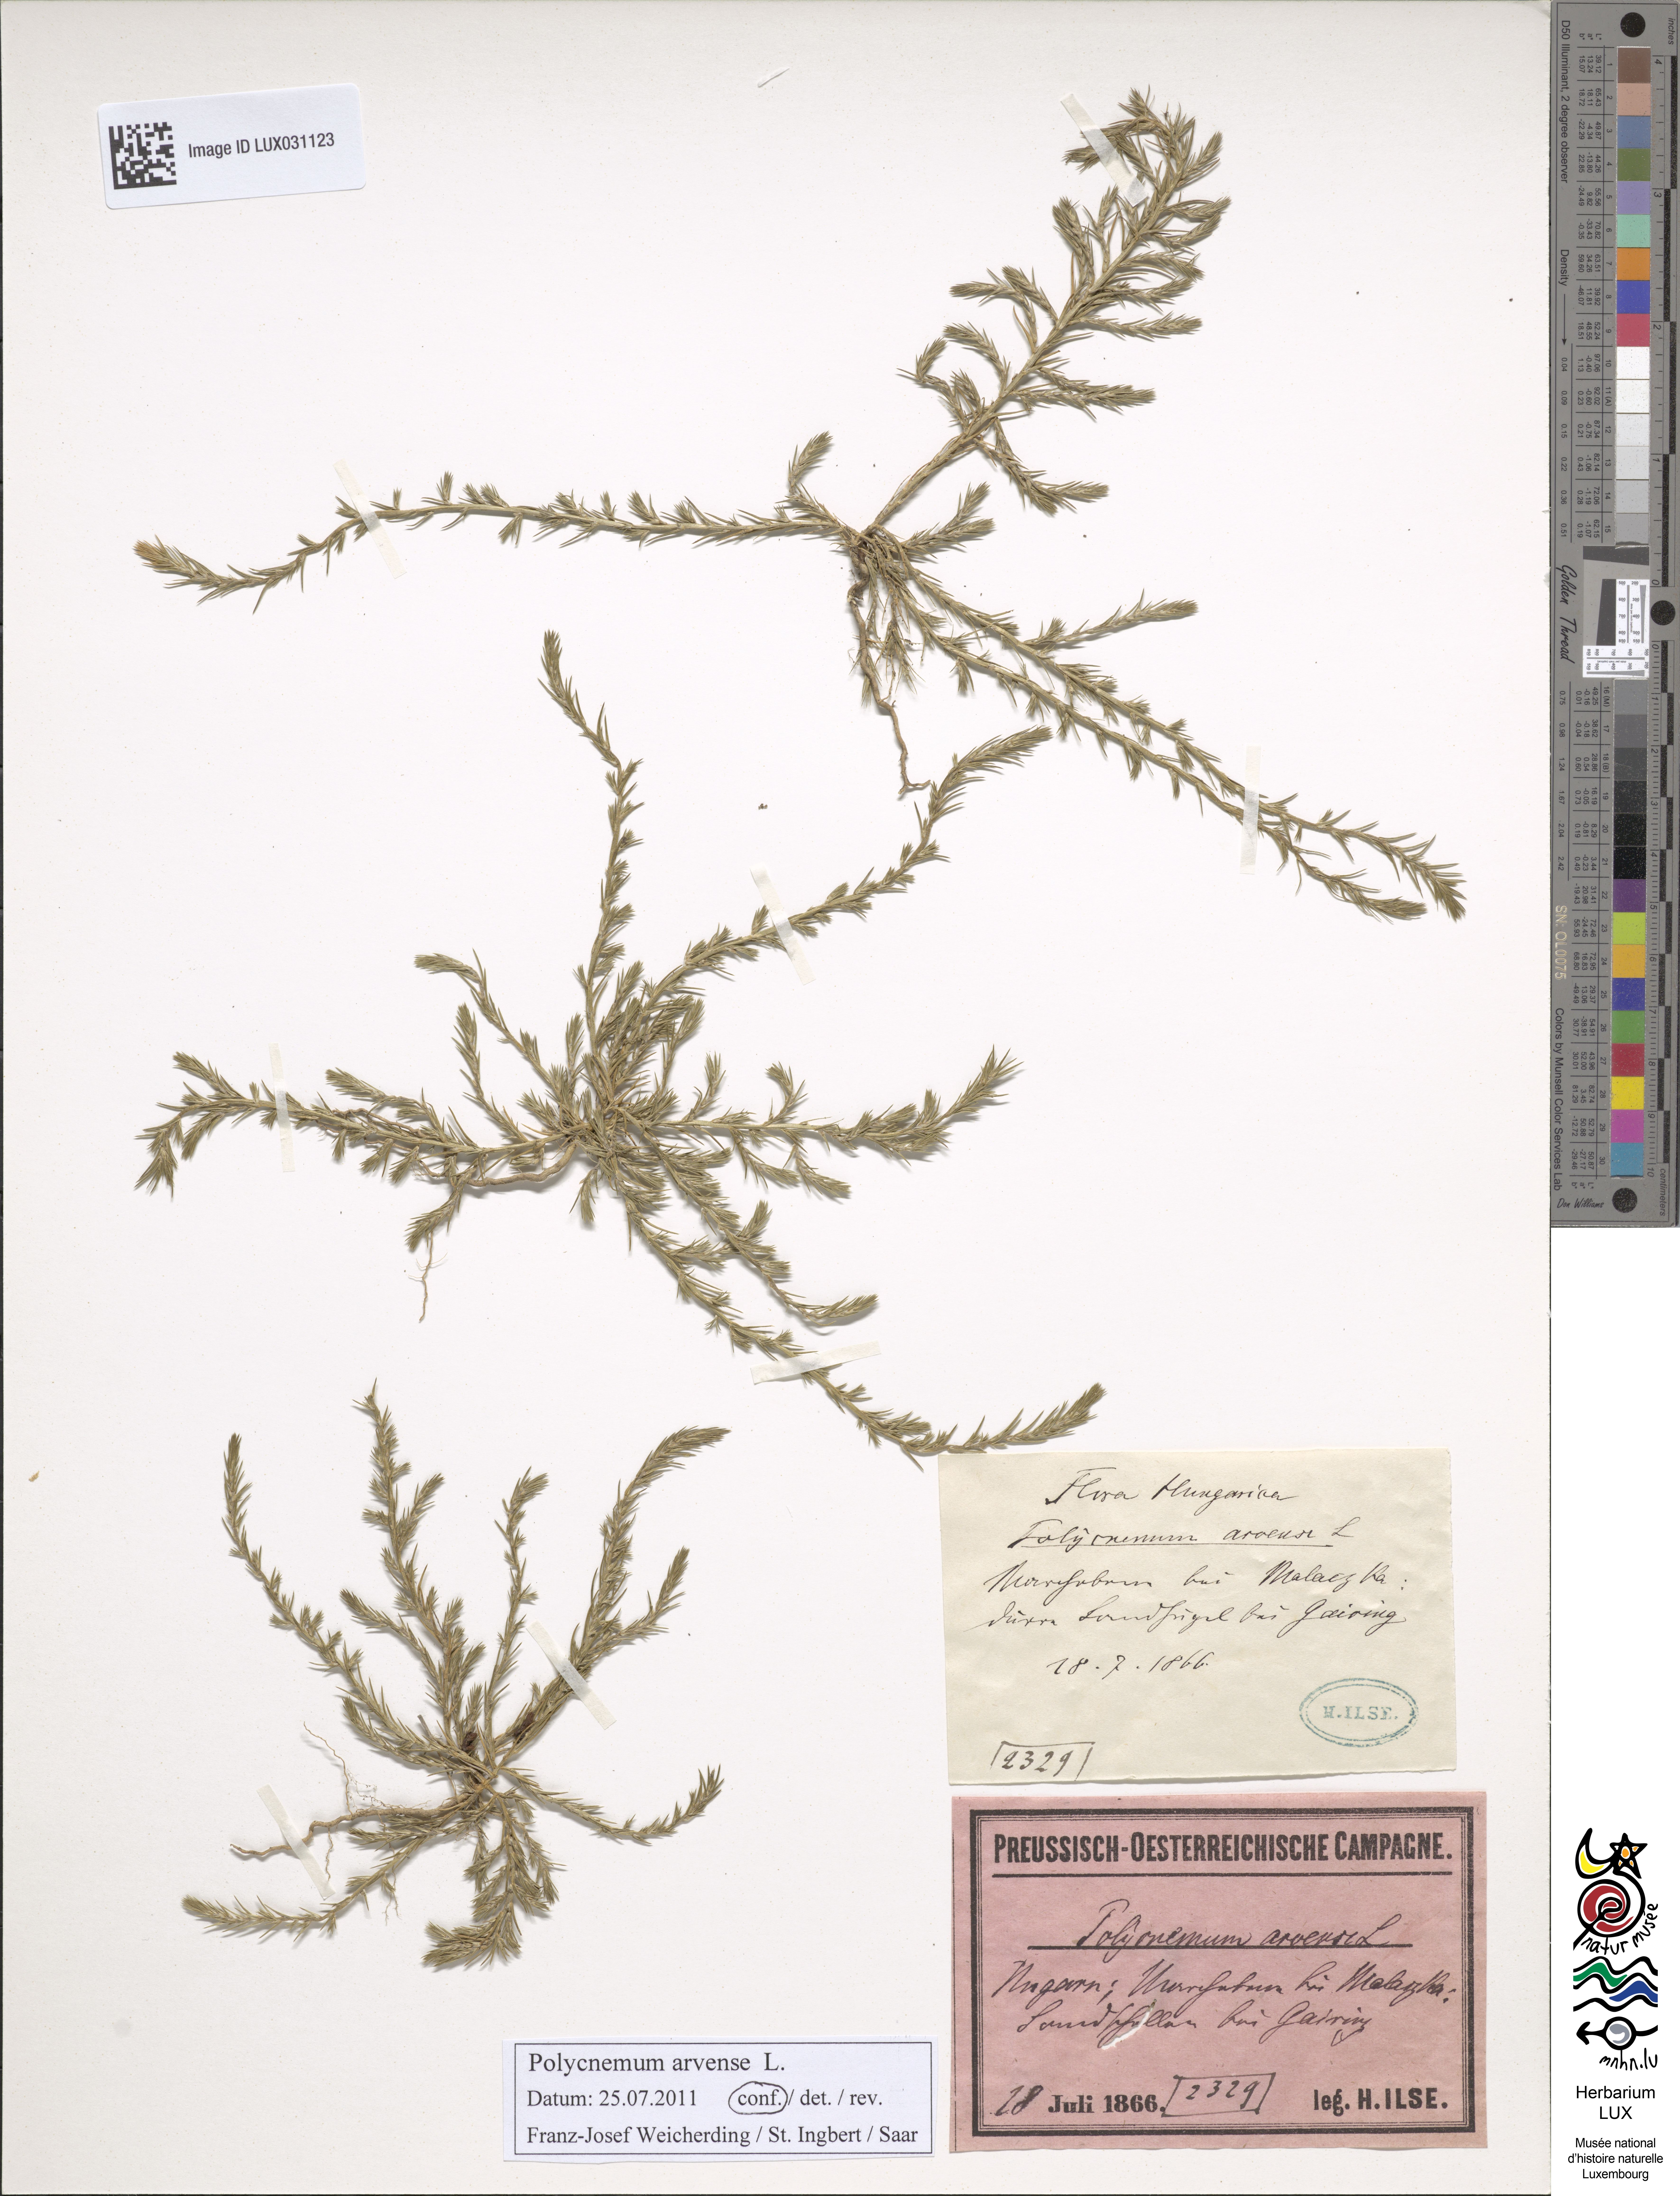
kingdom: Plantae
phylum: Tracheophyta
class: Magnoliopsida
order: Caryophyllales
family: Amaranthaceae
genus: Polycnemum
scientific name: Polycnemum arvense
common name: Soft needleleaf
